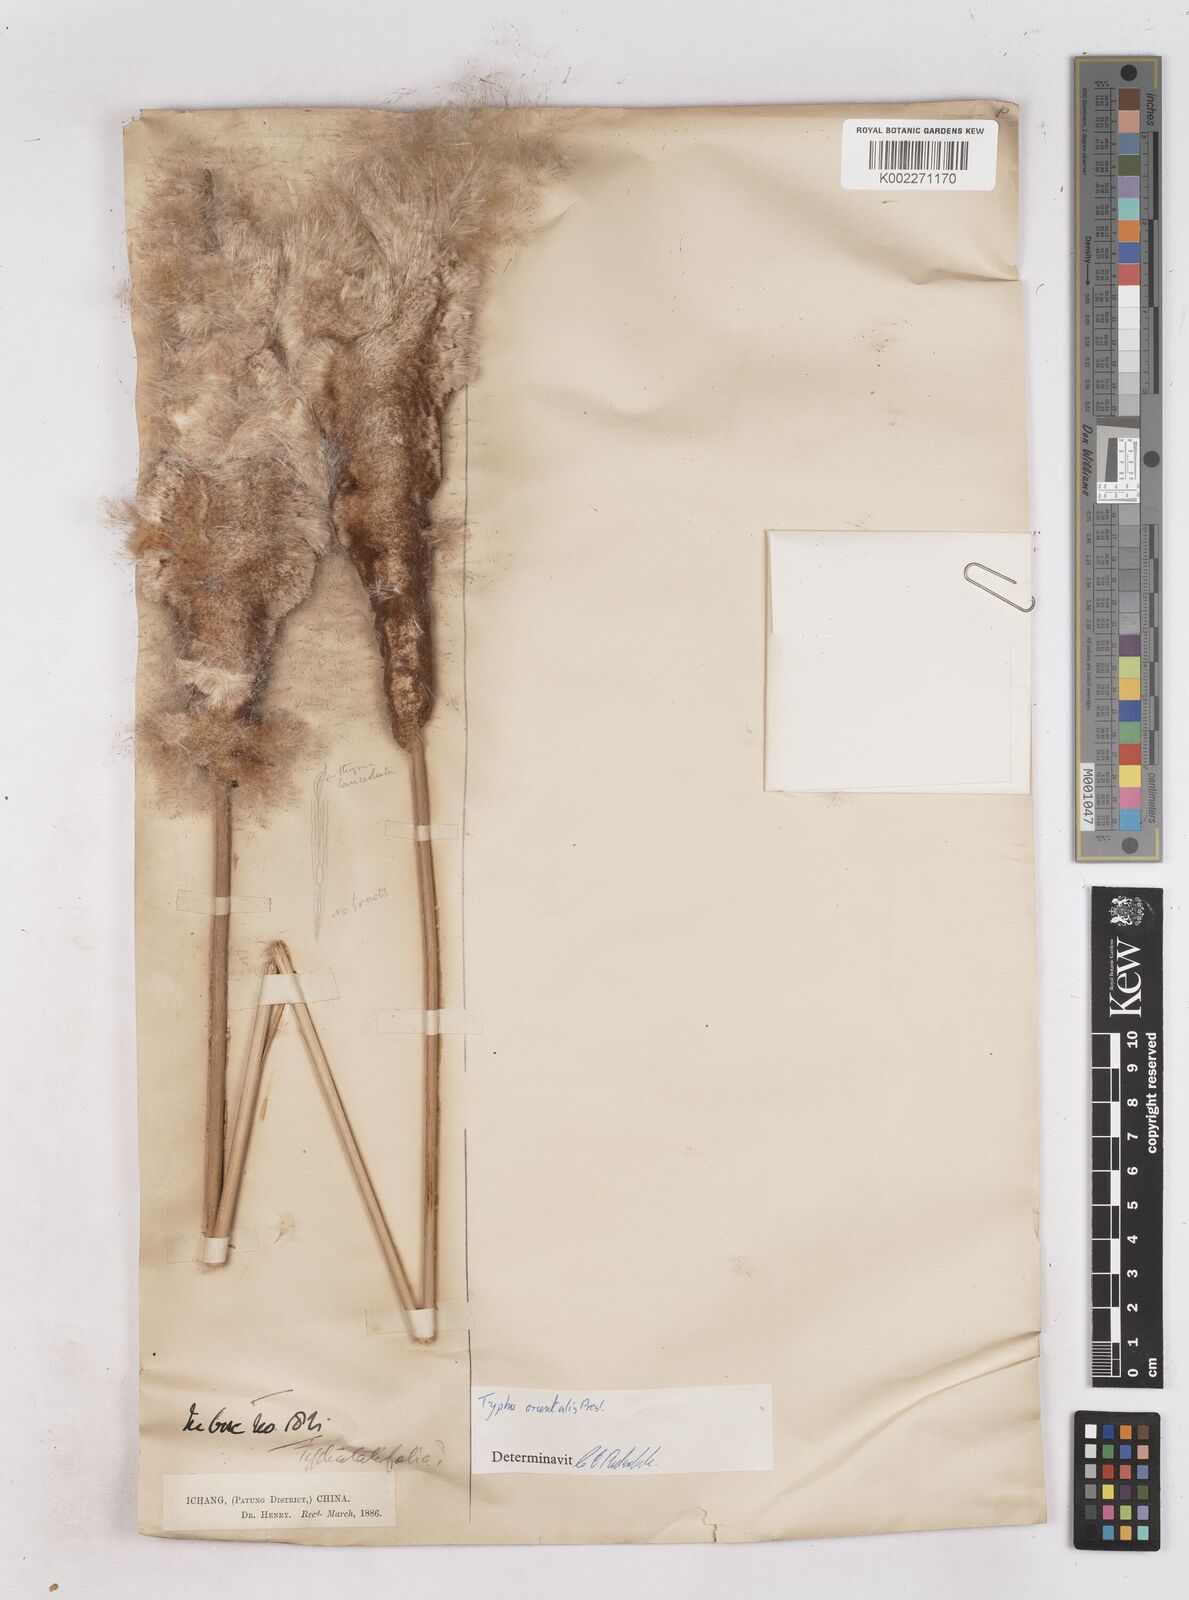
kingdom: Plantae
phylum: Tracheophyta
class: Liliopsida
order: Poales
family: Typhaceae
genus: Typha
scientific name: Typha shuttleworthii
